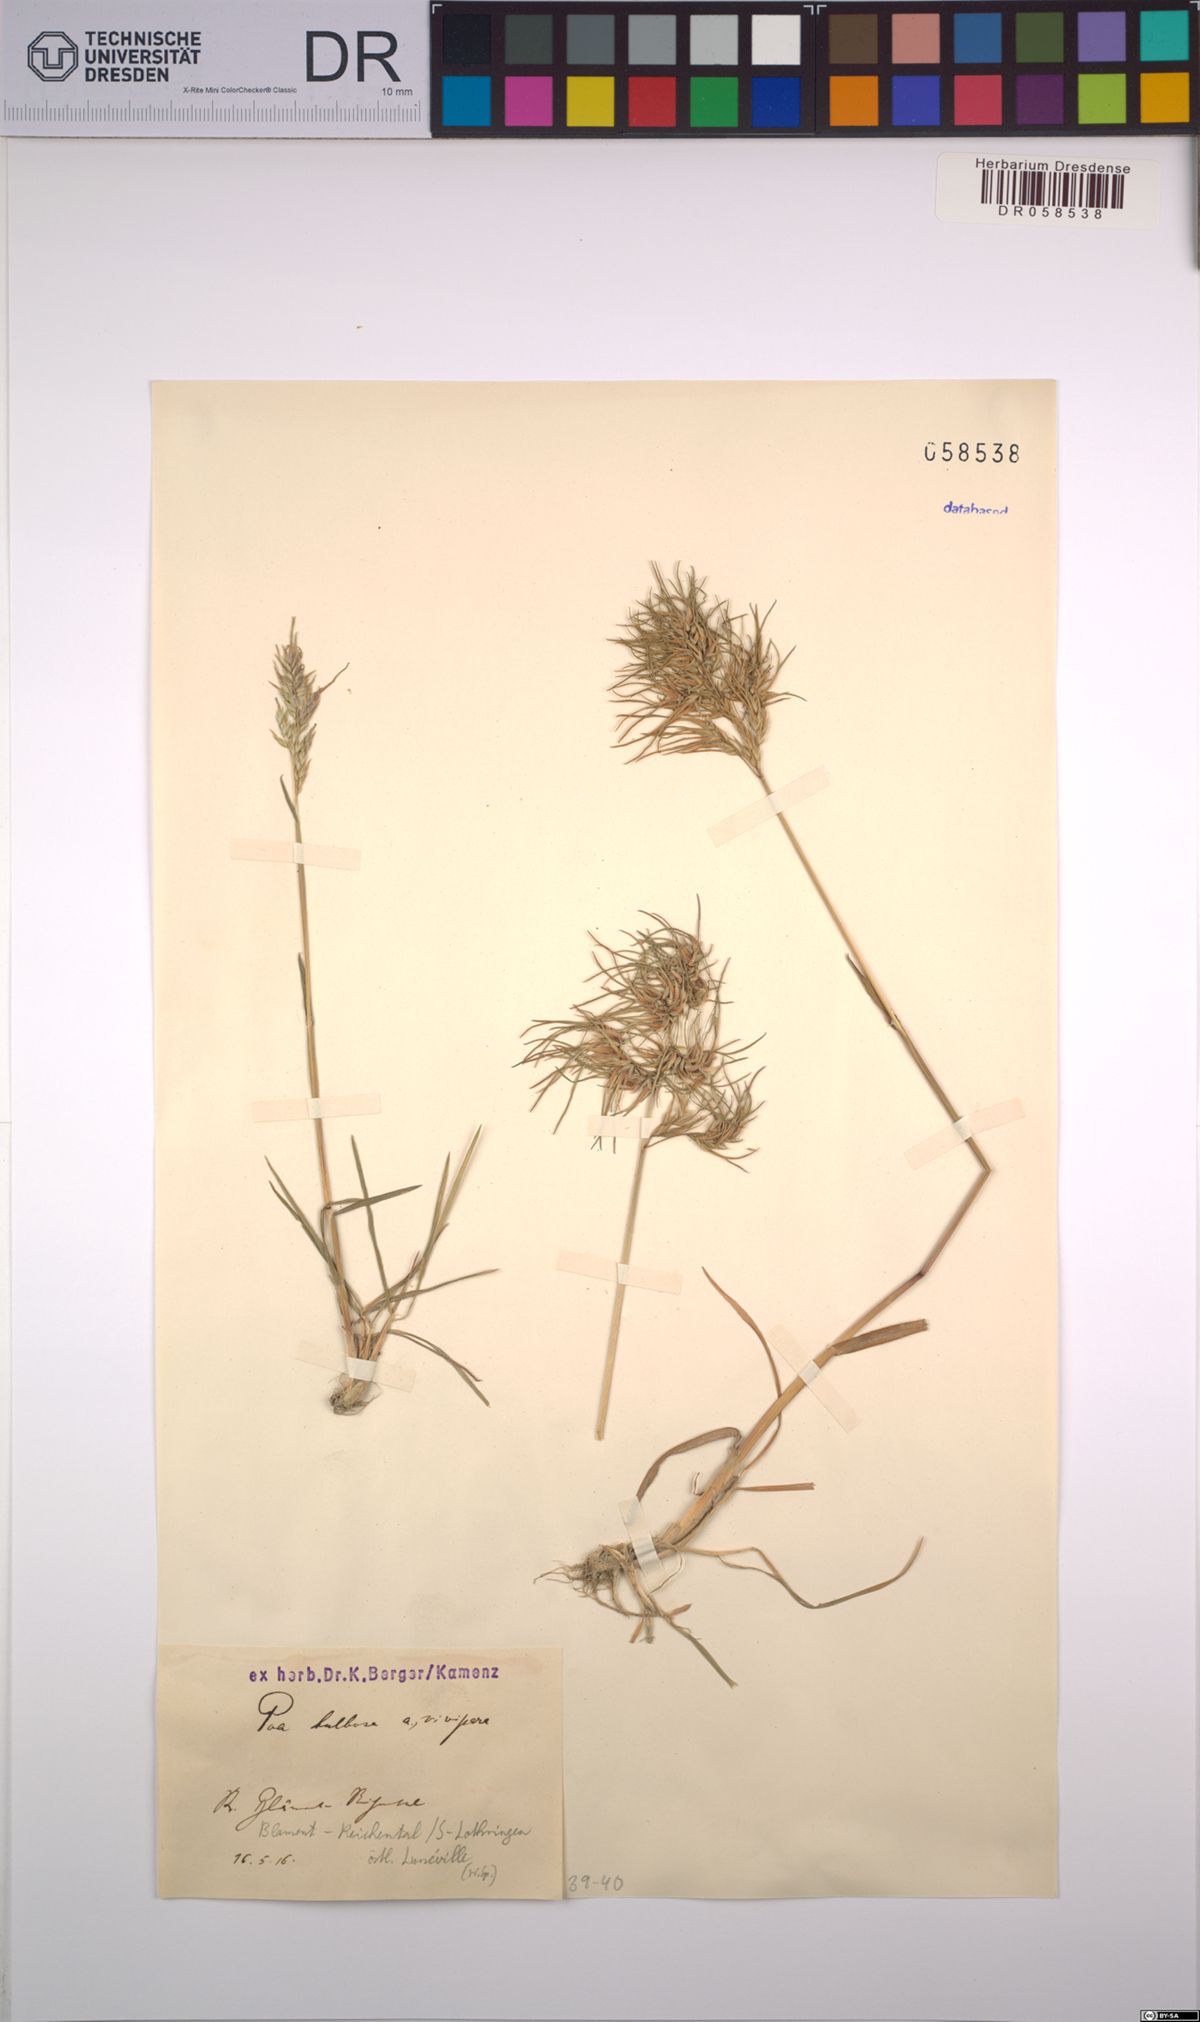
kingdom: Plantae
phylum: Tracheophyta
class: Liliopsida
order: Poales
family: Poaceae
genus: Poa
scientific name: Poa bulbosa
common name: Bulbous bluegrass
